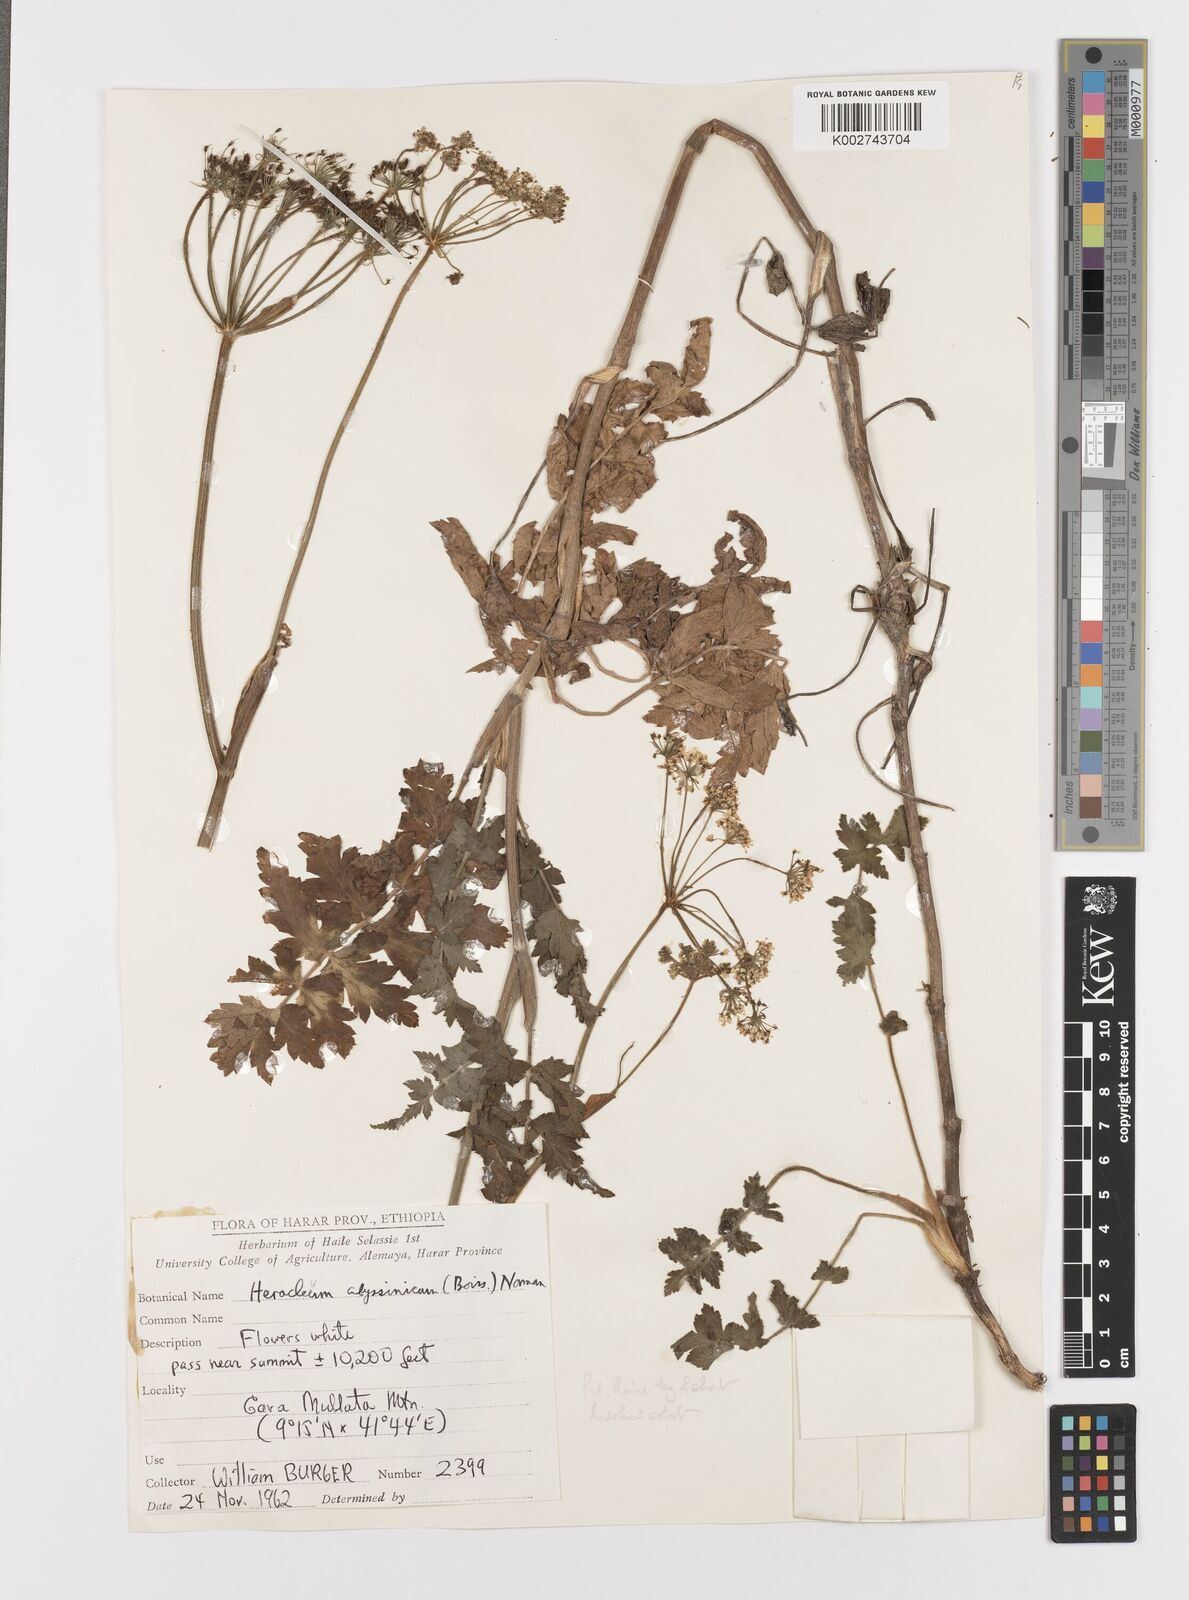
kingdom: Plantae
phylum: Tracheophyta
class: Magnoliopsida
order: Apiales
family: Apiaceae
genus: Heracleum
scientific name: Heracleum abyssinicum
